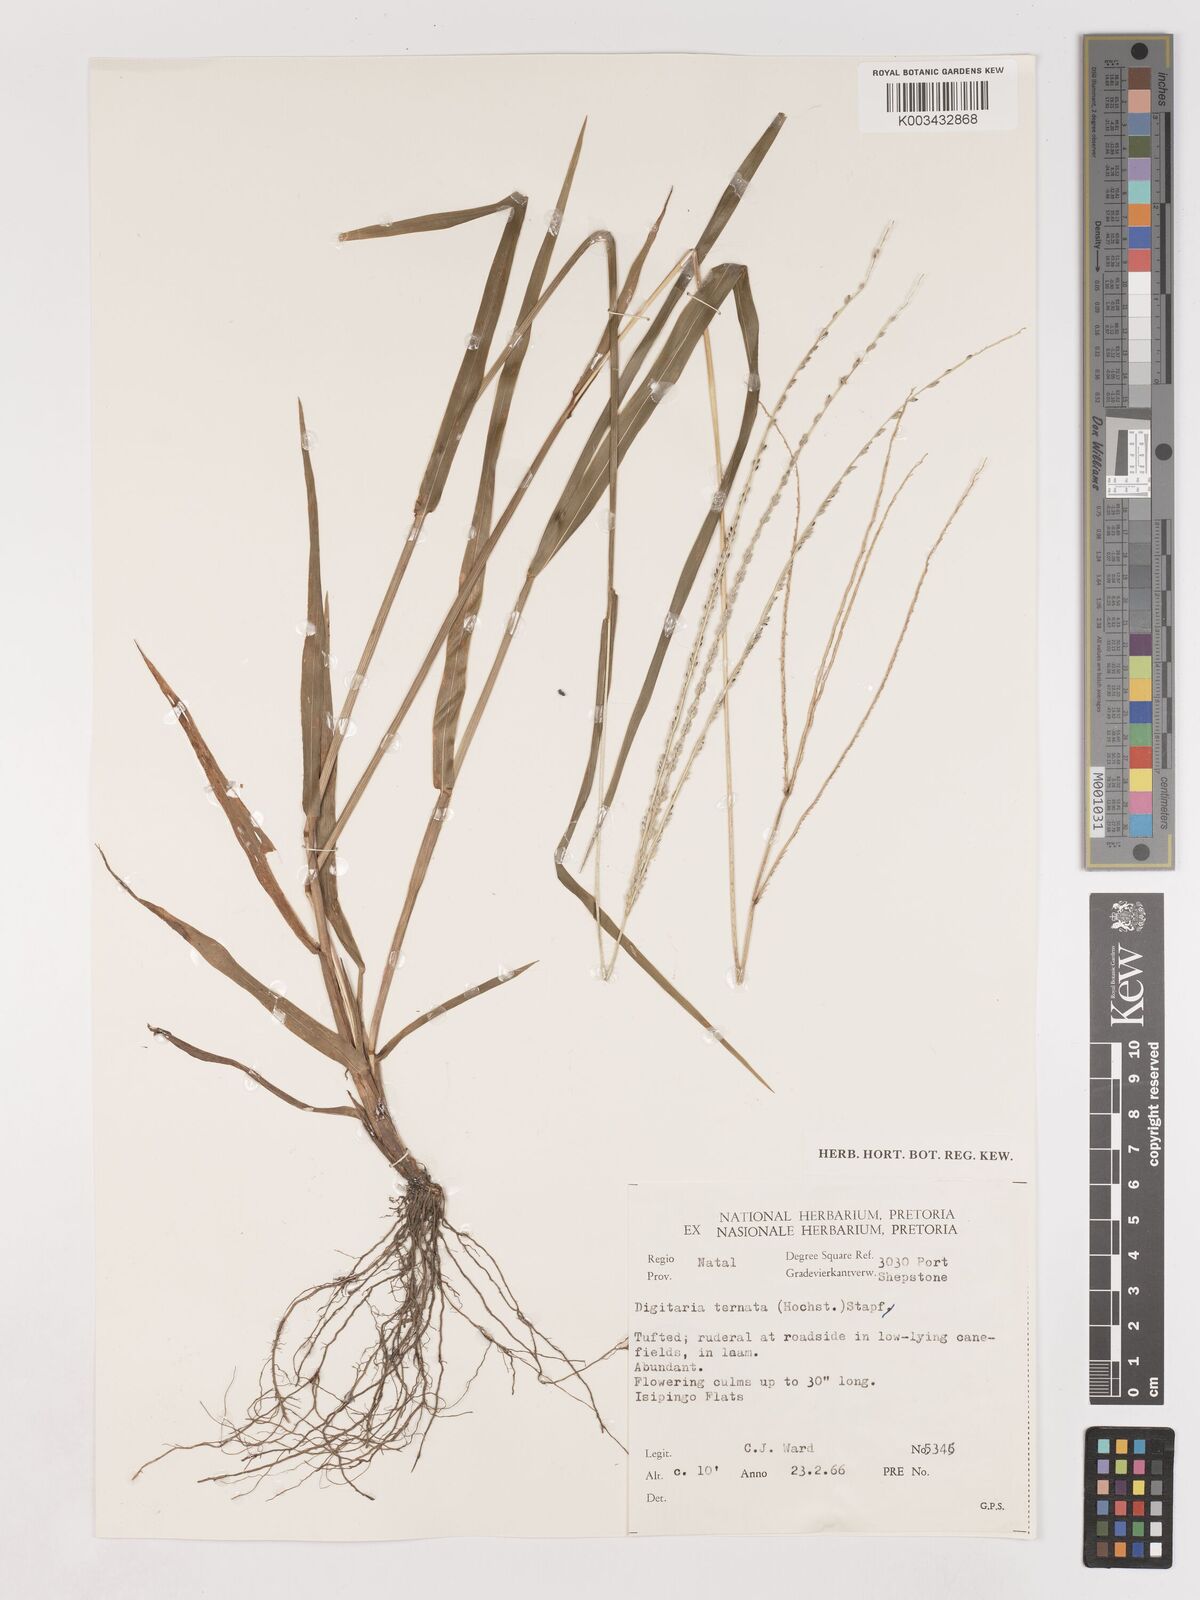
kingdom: Plantae
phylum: Tracheophyta
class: Liliopsida
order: Poales
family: Poaceae
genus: Digitaria
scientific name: Digitaria ternata
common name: Blackseed crabgrass
